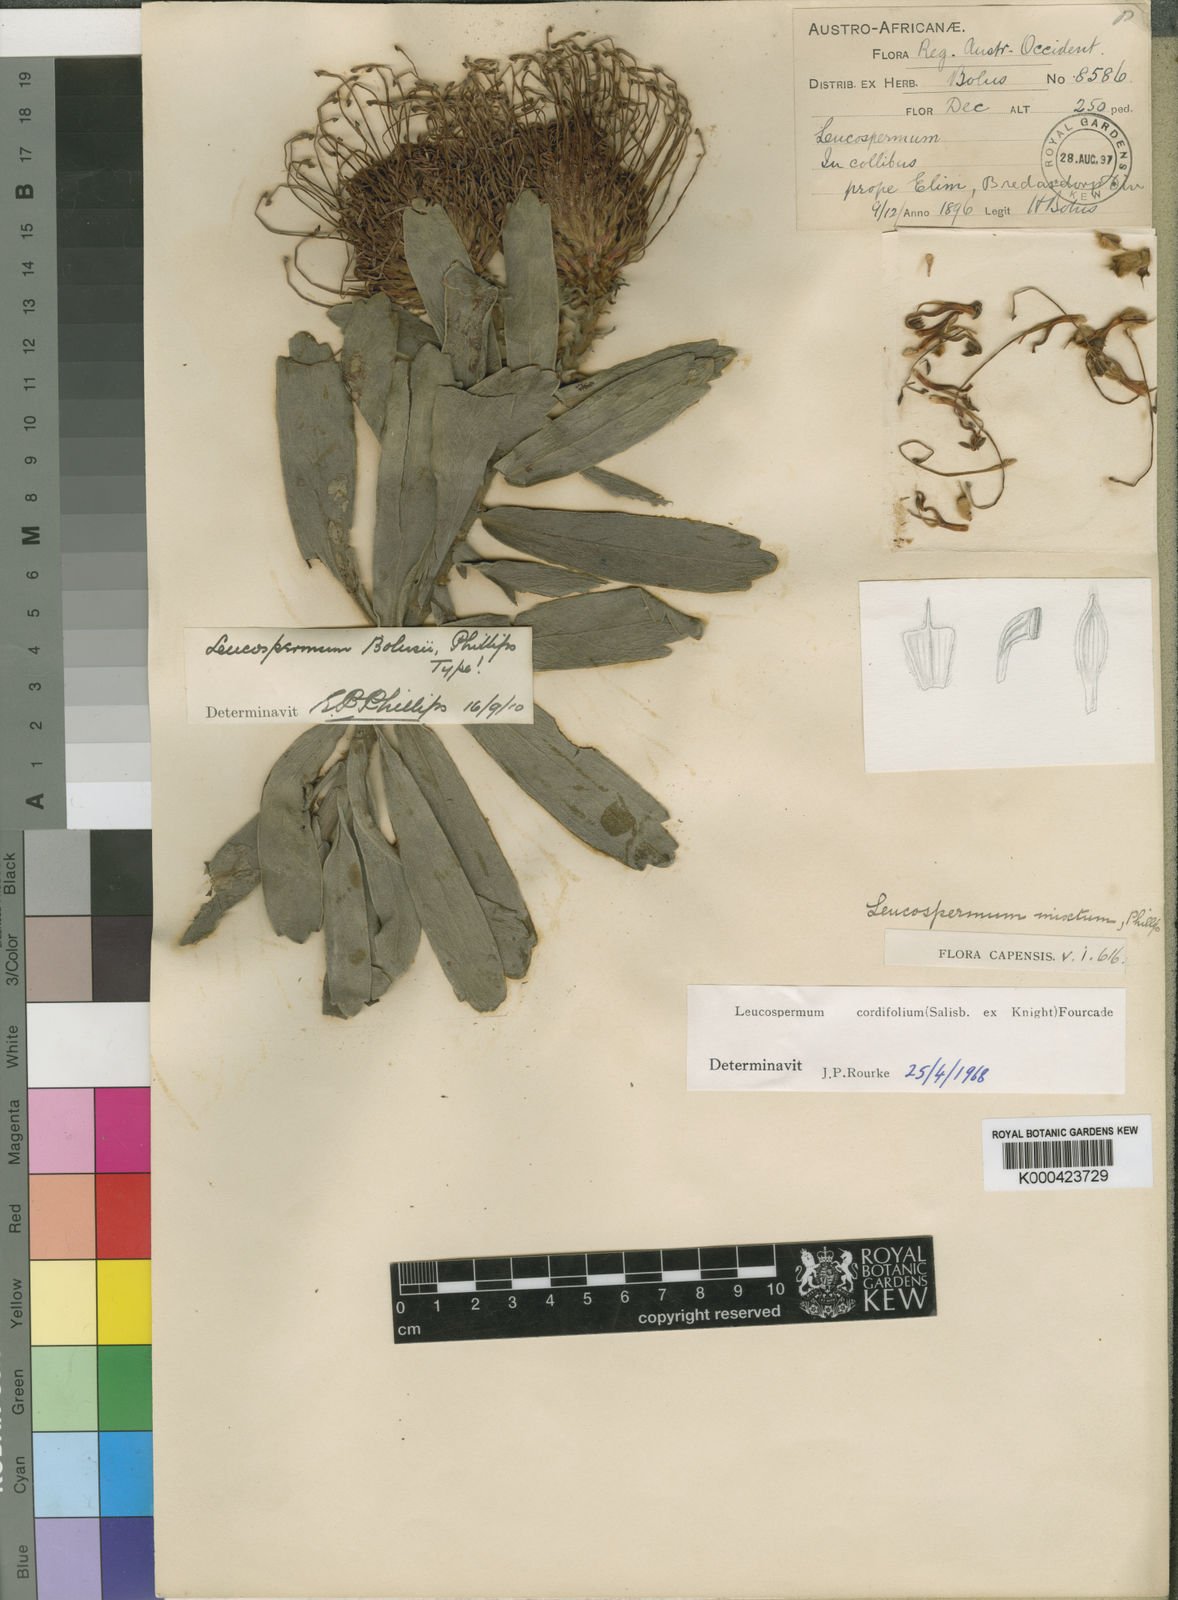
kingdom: Plantae
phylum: Tracheophyta
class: Magnoliopsida
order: Proteales
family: Proteaceae
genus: Leucospermum
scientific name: Leucospermum cordifolium
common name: Red pincushion-protea
